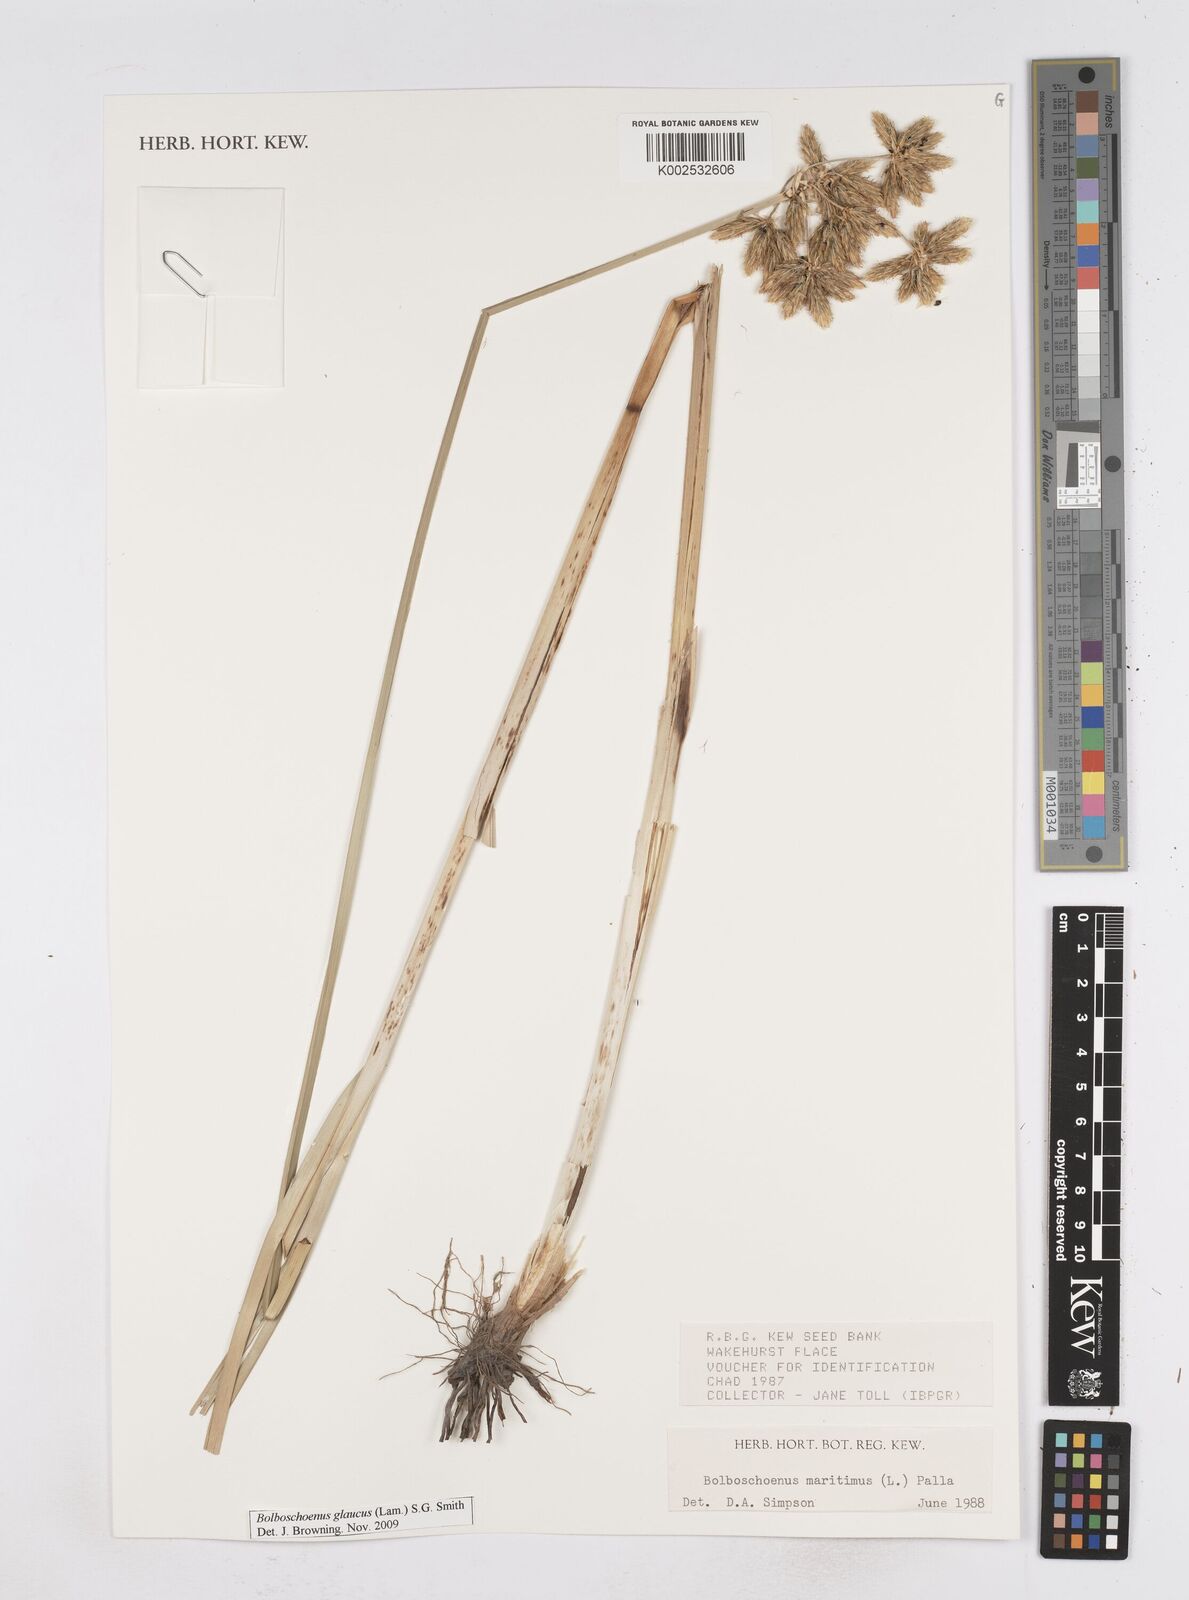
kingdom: Plantae
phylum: Tracheophyta
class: Liliopsida
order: Poales
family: Cyperaceae
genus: Bolboschoenus
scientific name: Bolboschoenus maritimus
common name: Sea club-rush
